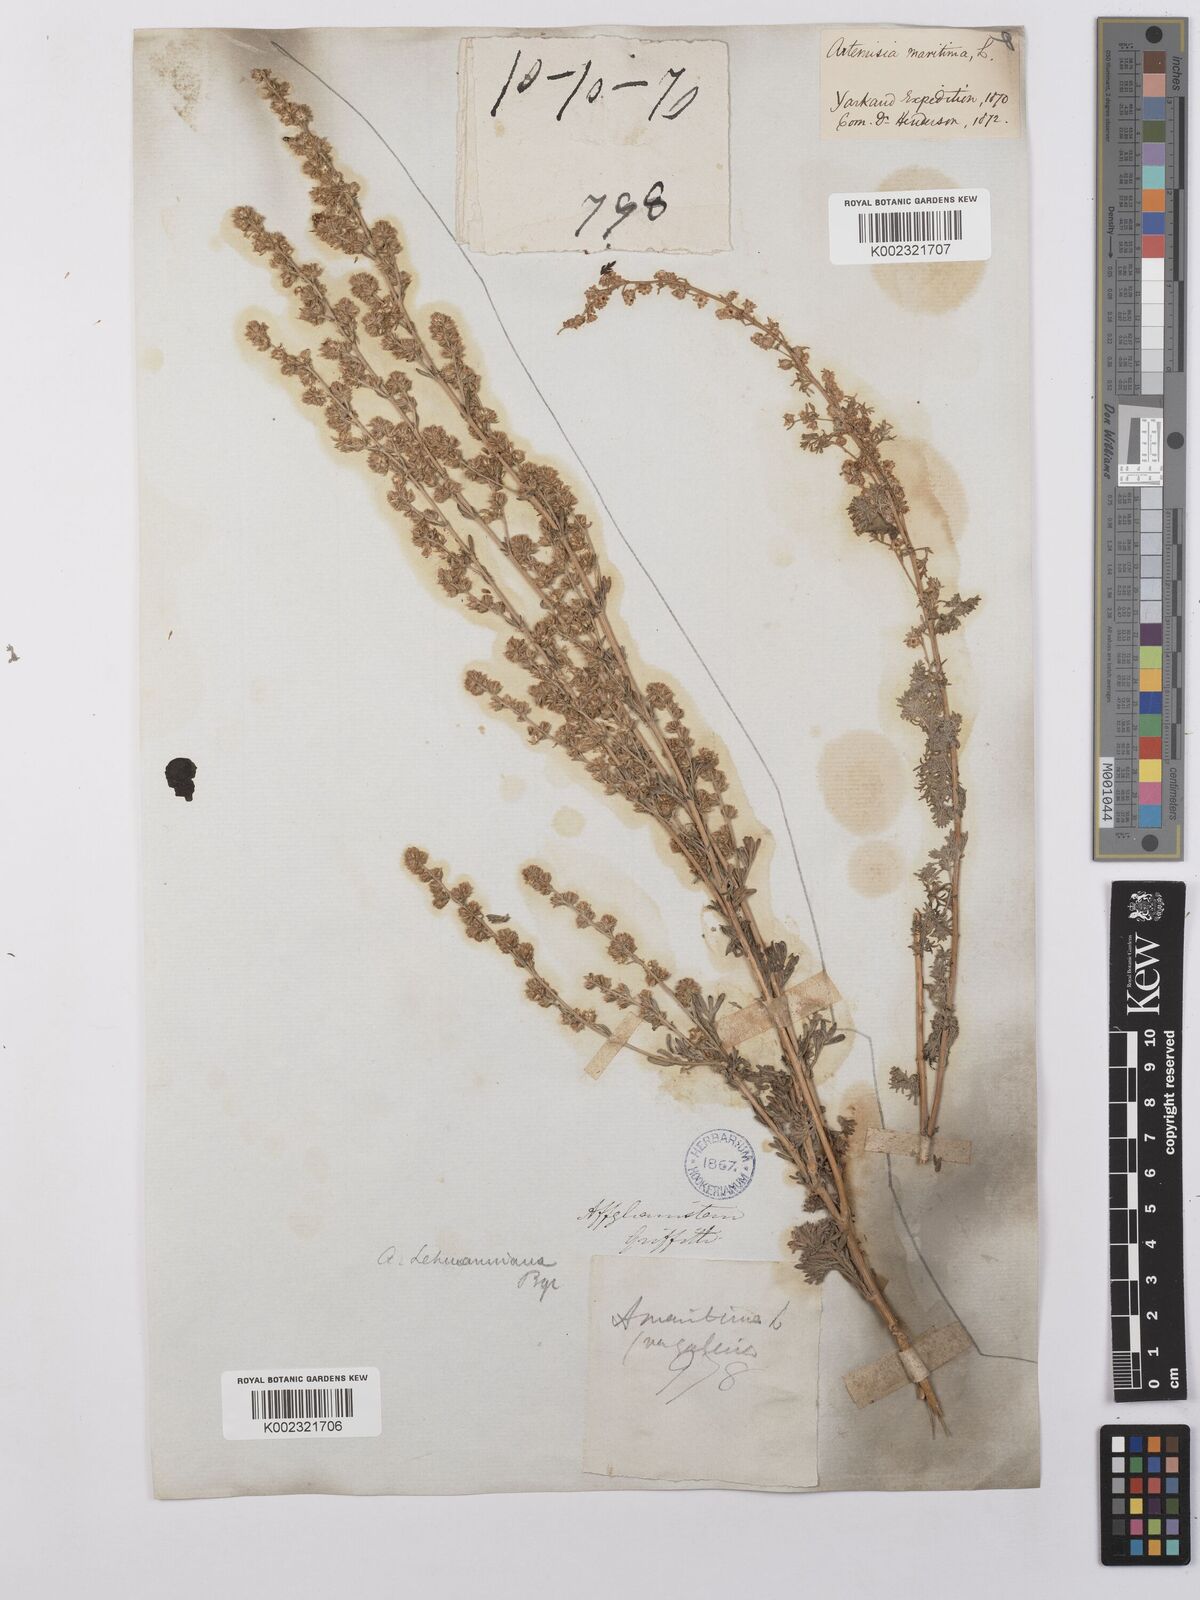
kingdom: Plantae
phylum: Tracheophyta
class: Magnoliopsida
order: Asterales
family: Asteraceae
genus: Artemisia
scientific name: Artemisia lehmanniana
